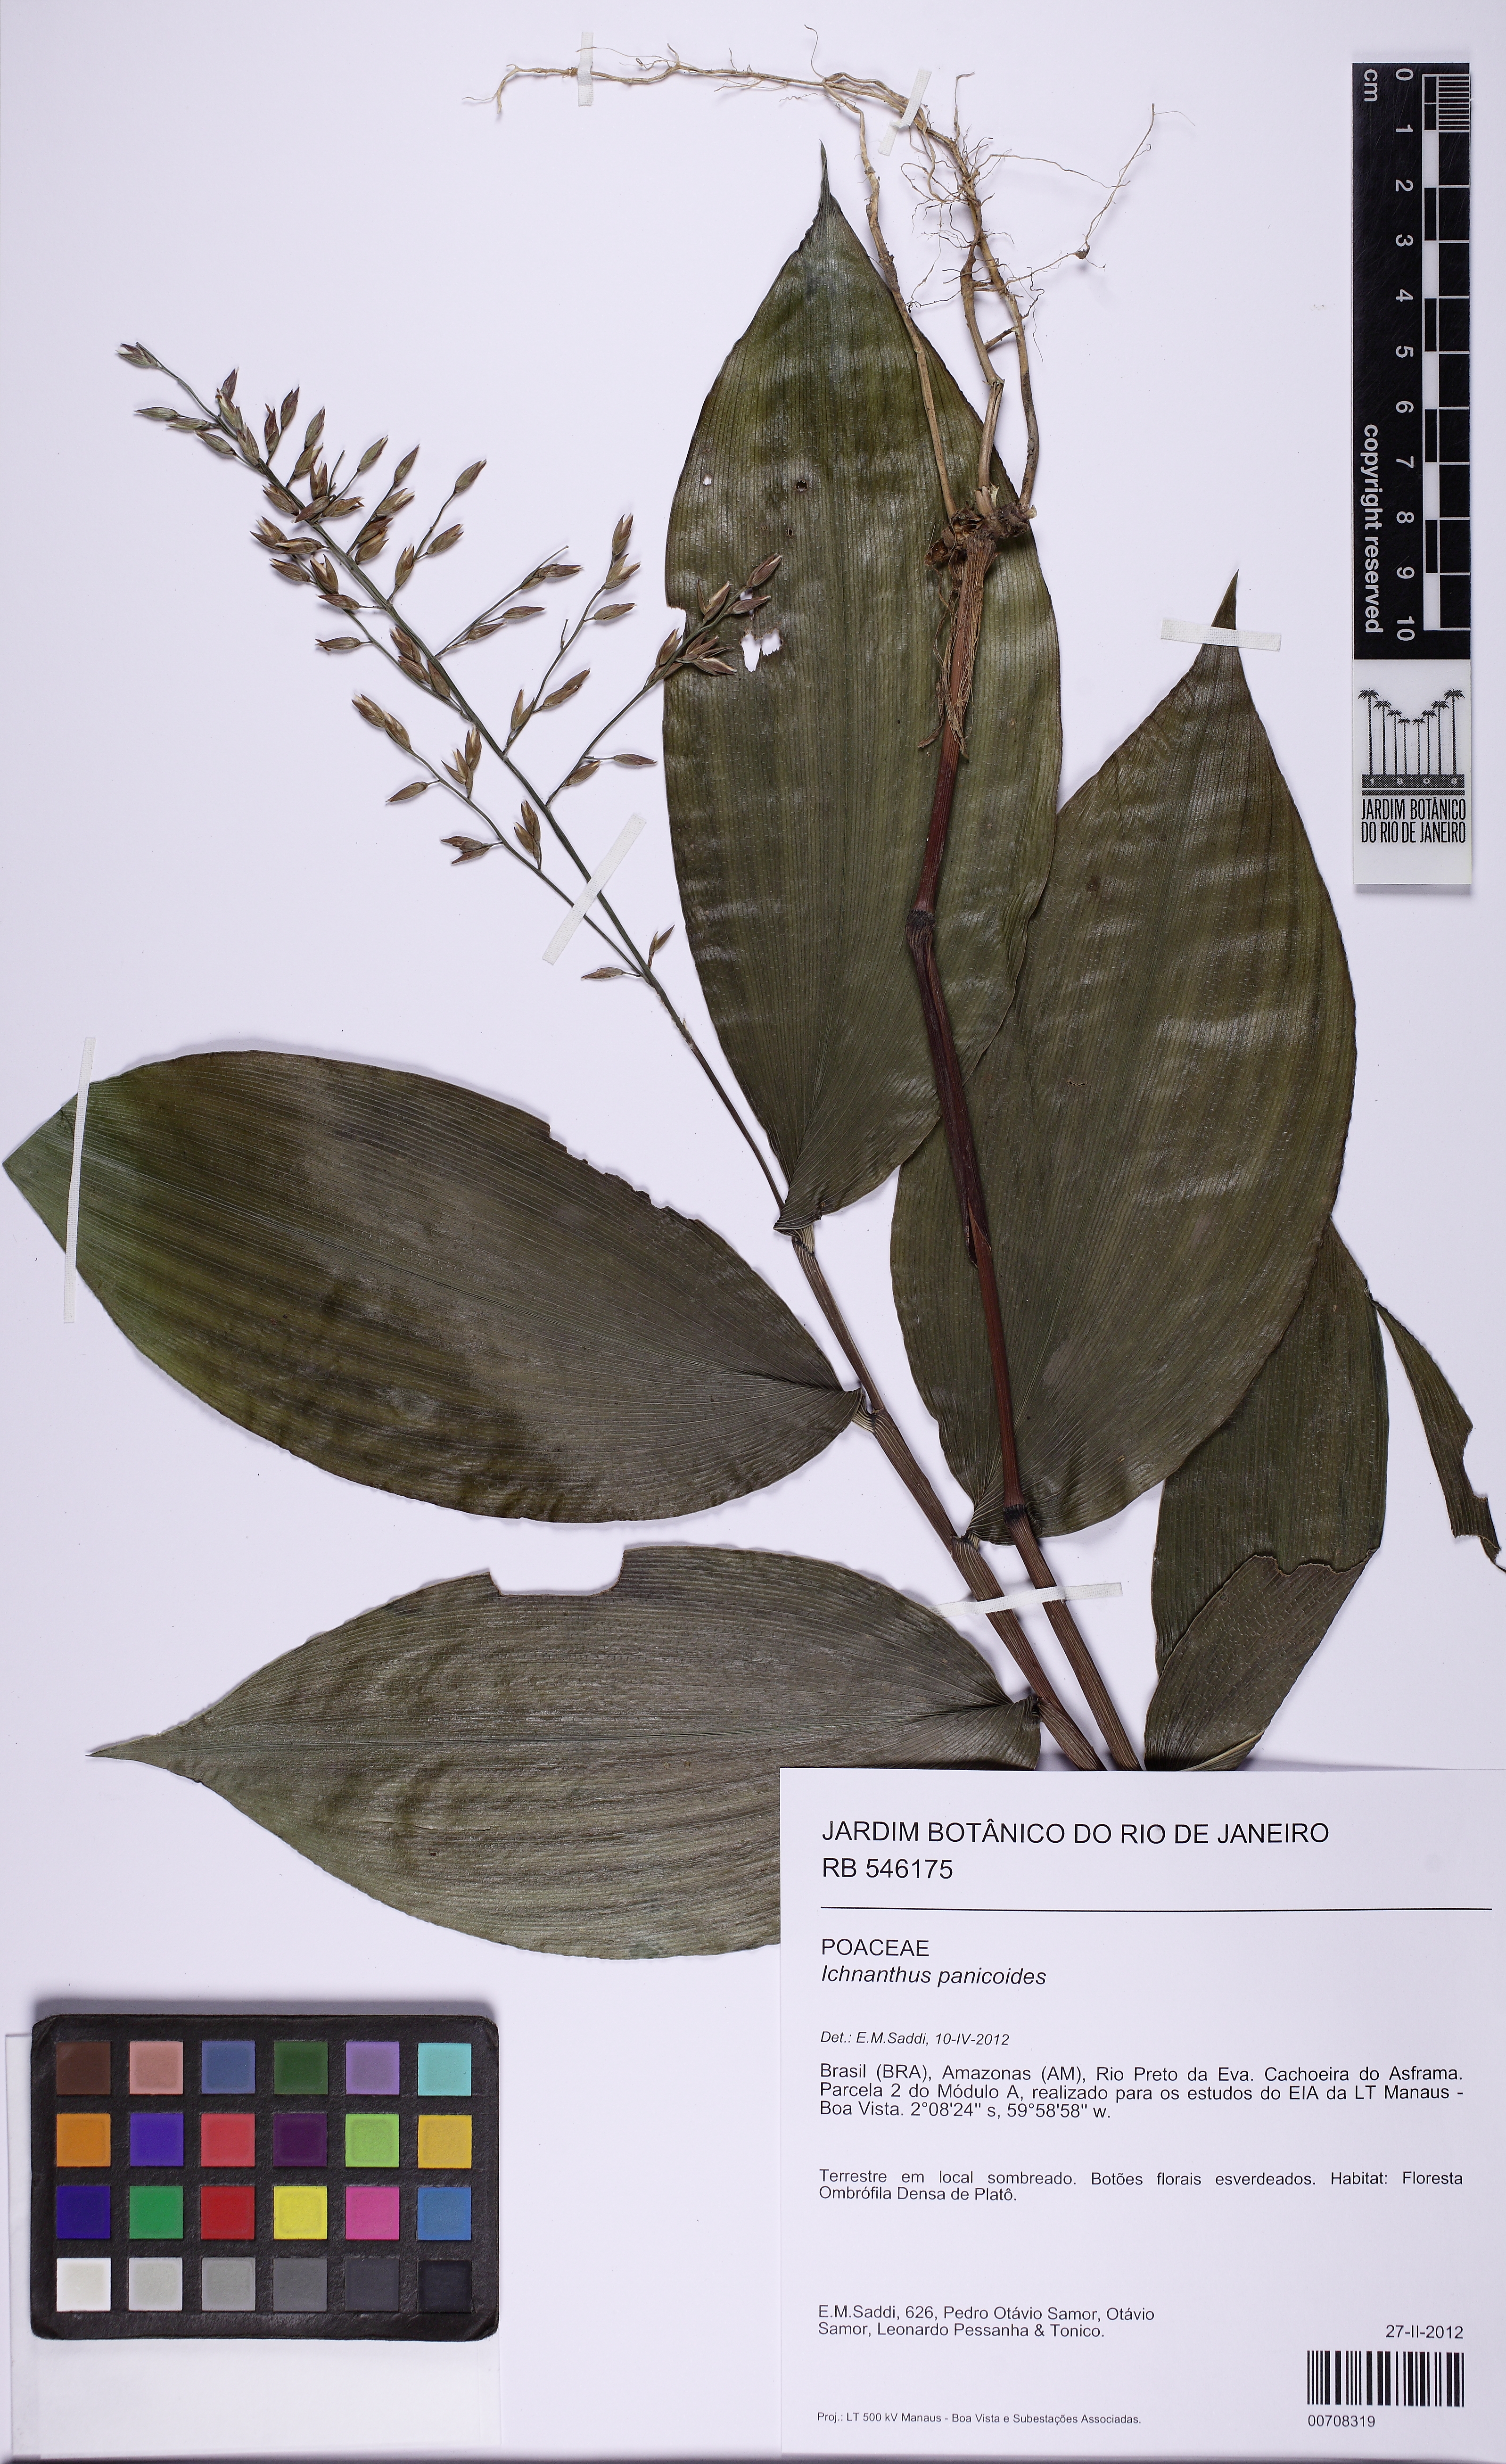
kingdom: Plantae
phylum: Tracheophyta
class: Liliopsida
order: Poales
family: Poaceae
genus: Ichnanthus
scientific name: Ichnanthus panicoides
